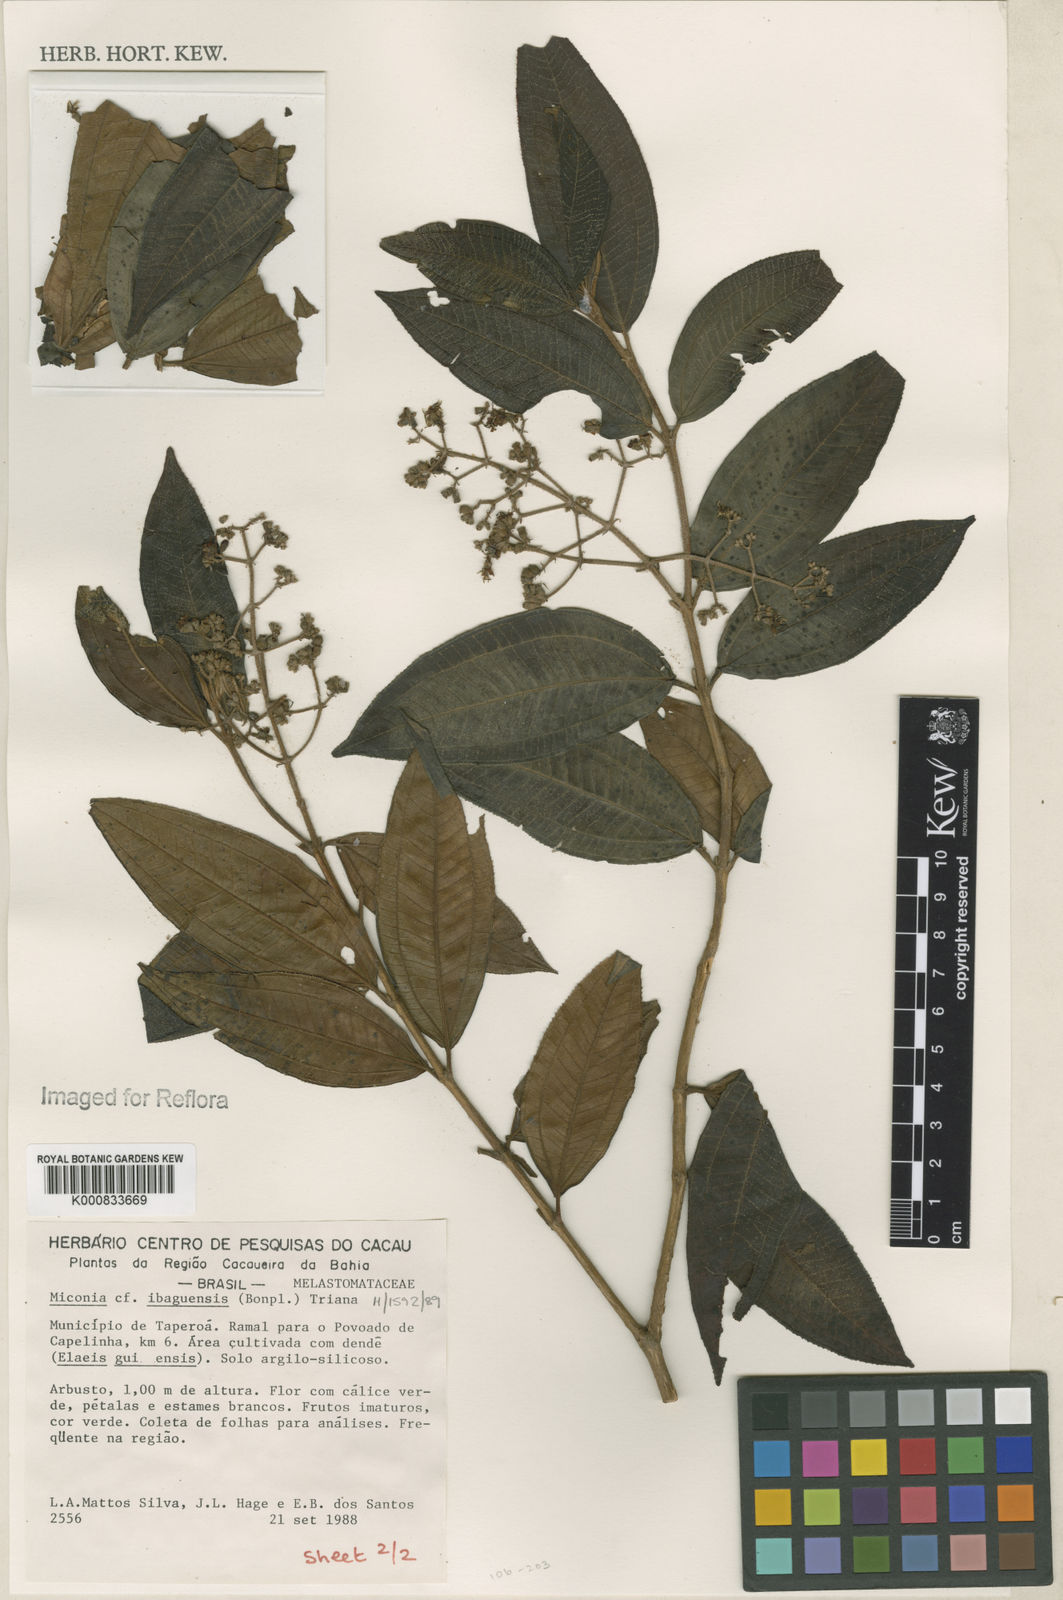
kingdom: Plantae
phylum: Tracheophyta
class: Magnoliopsida
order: Myrtales
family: Melastomataceae
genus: Miconia
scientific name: Miconia ibaguensis
